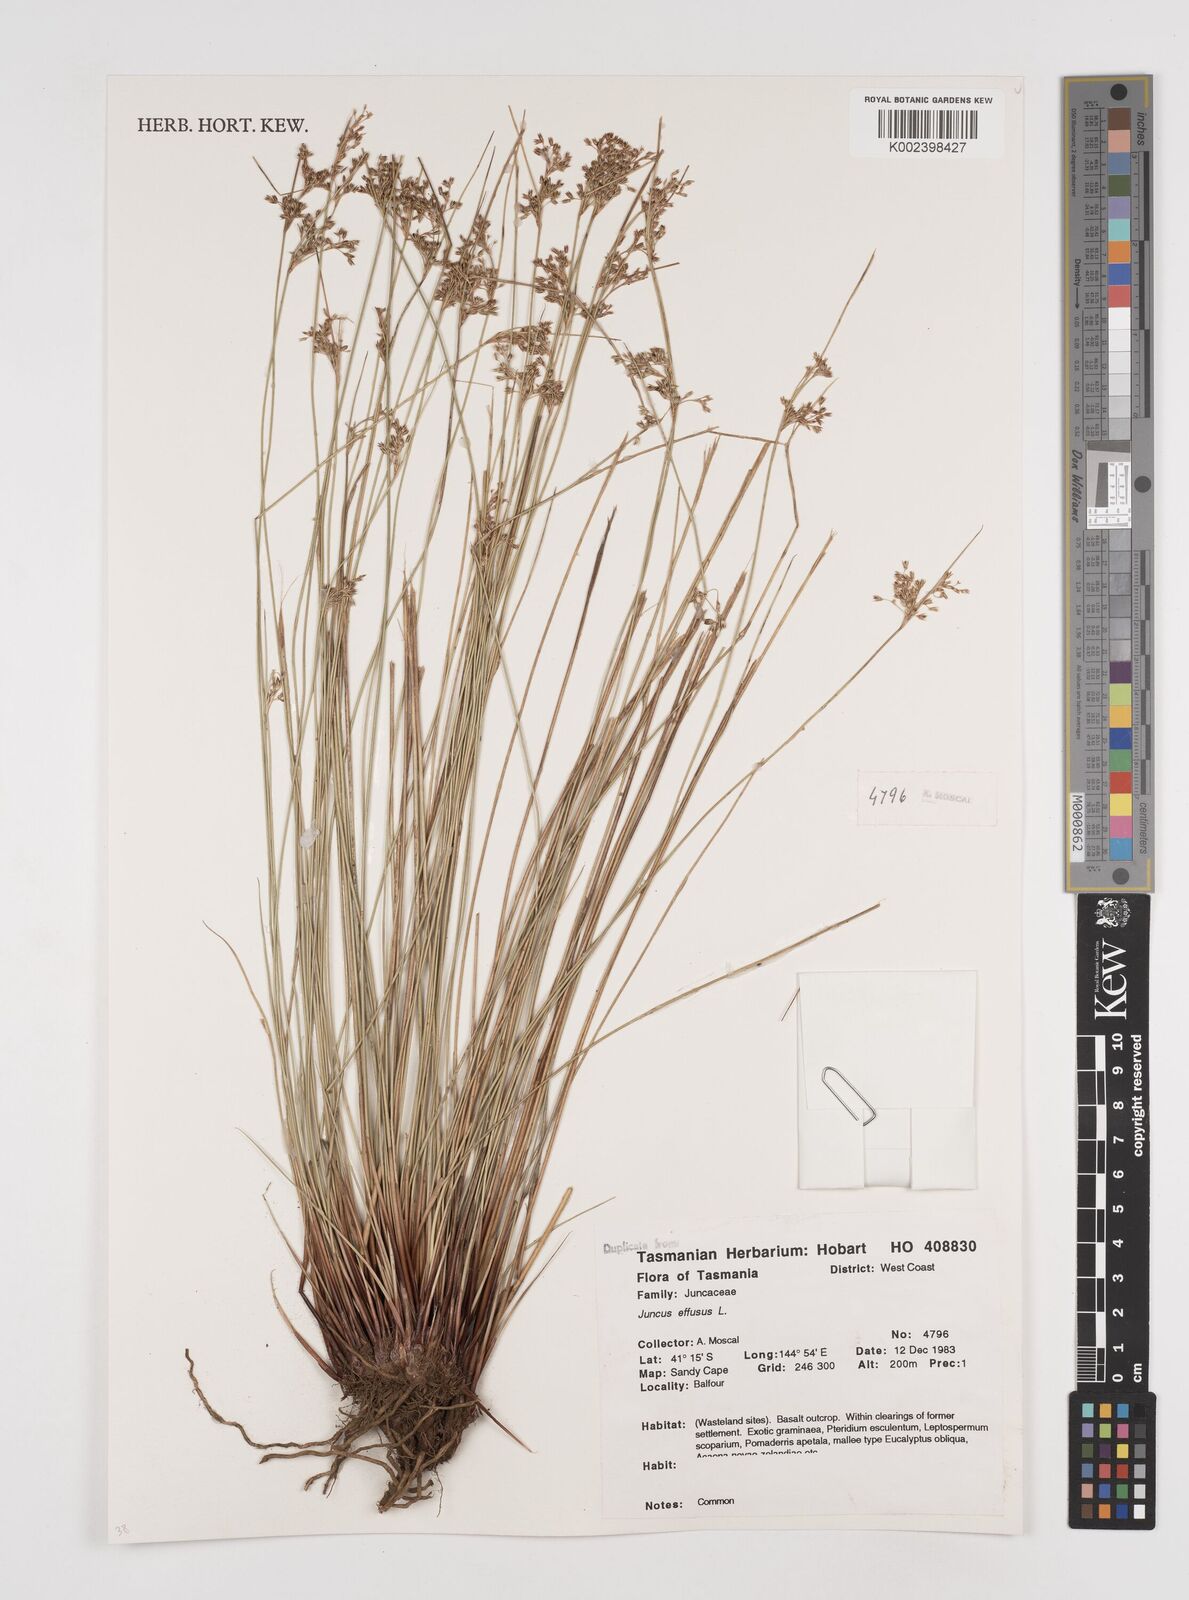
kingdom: Plantae
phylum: Tracheophyta
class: Liliopsida
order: Poales
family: Juncaceae
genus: Juncus
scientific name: Juncus effusus
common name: Soft rush
